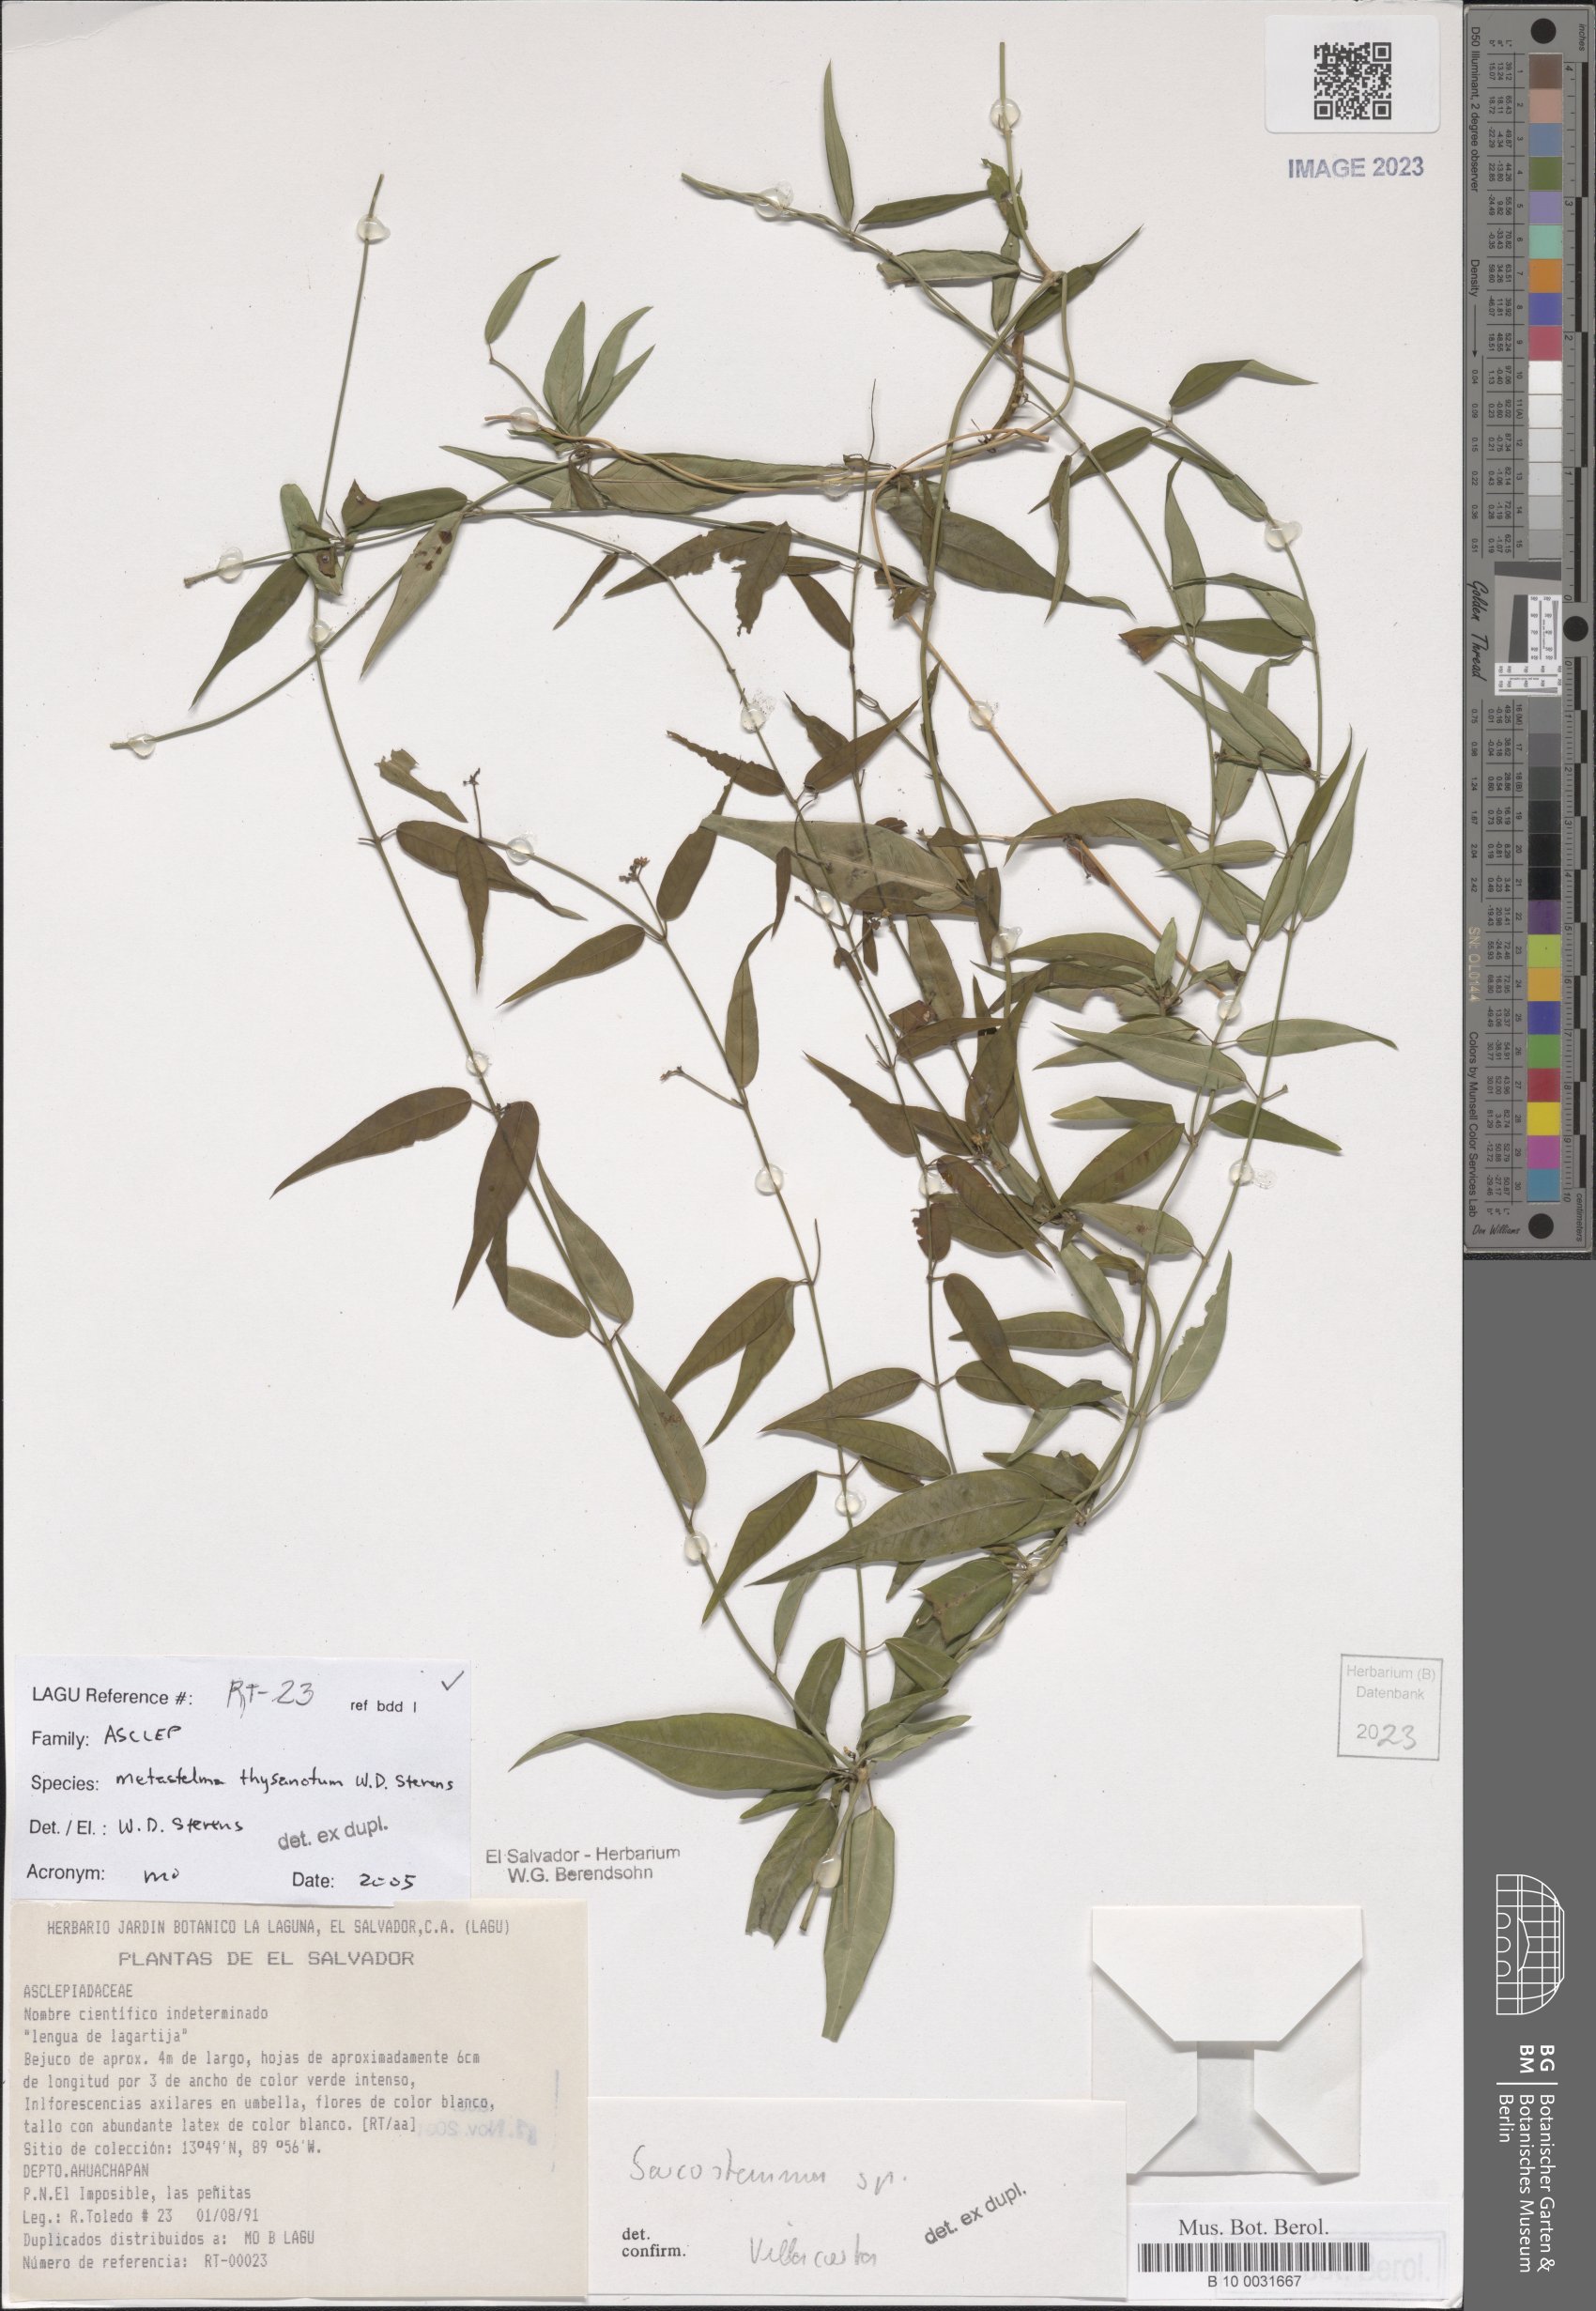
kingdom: Plantae
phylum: Tracheophyta
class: Magnoliopsida
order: Gentianales
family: Apocynaceae
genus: Metastelma
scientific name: Metastelma thysanotum
